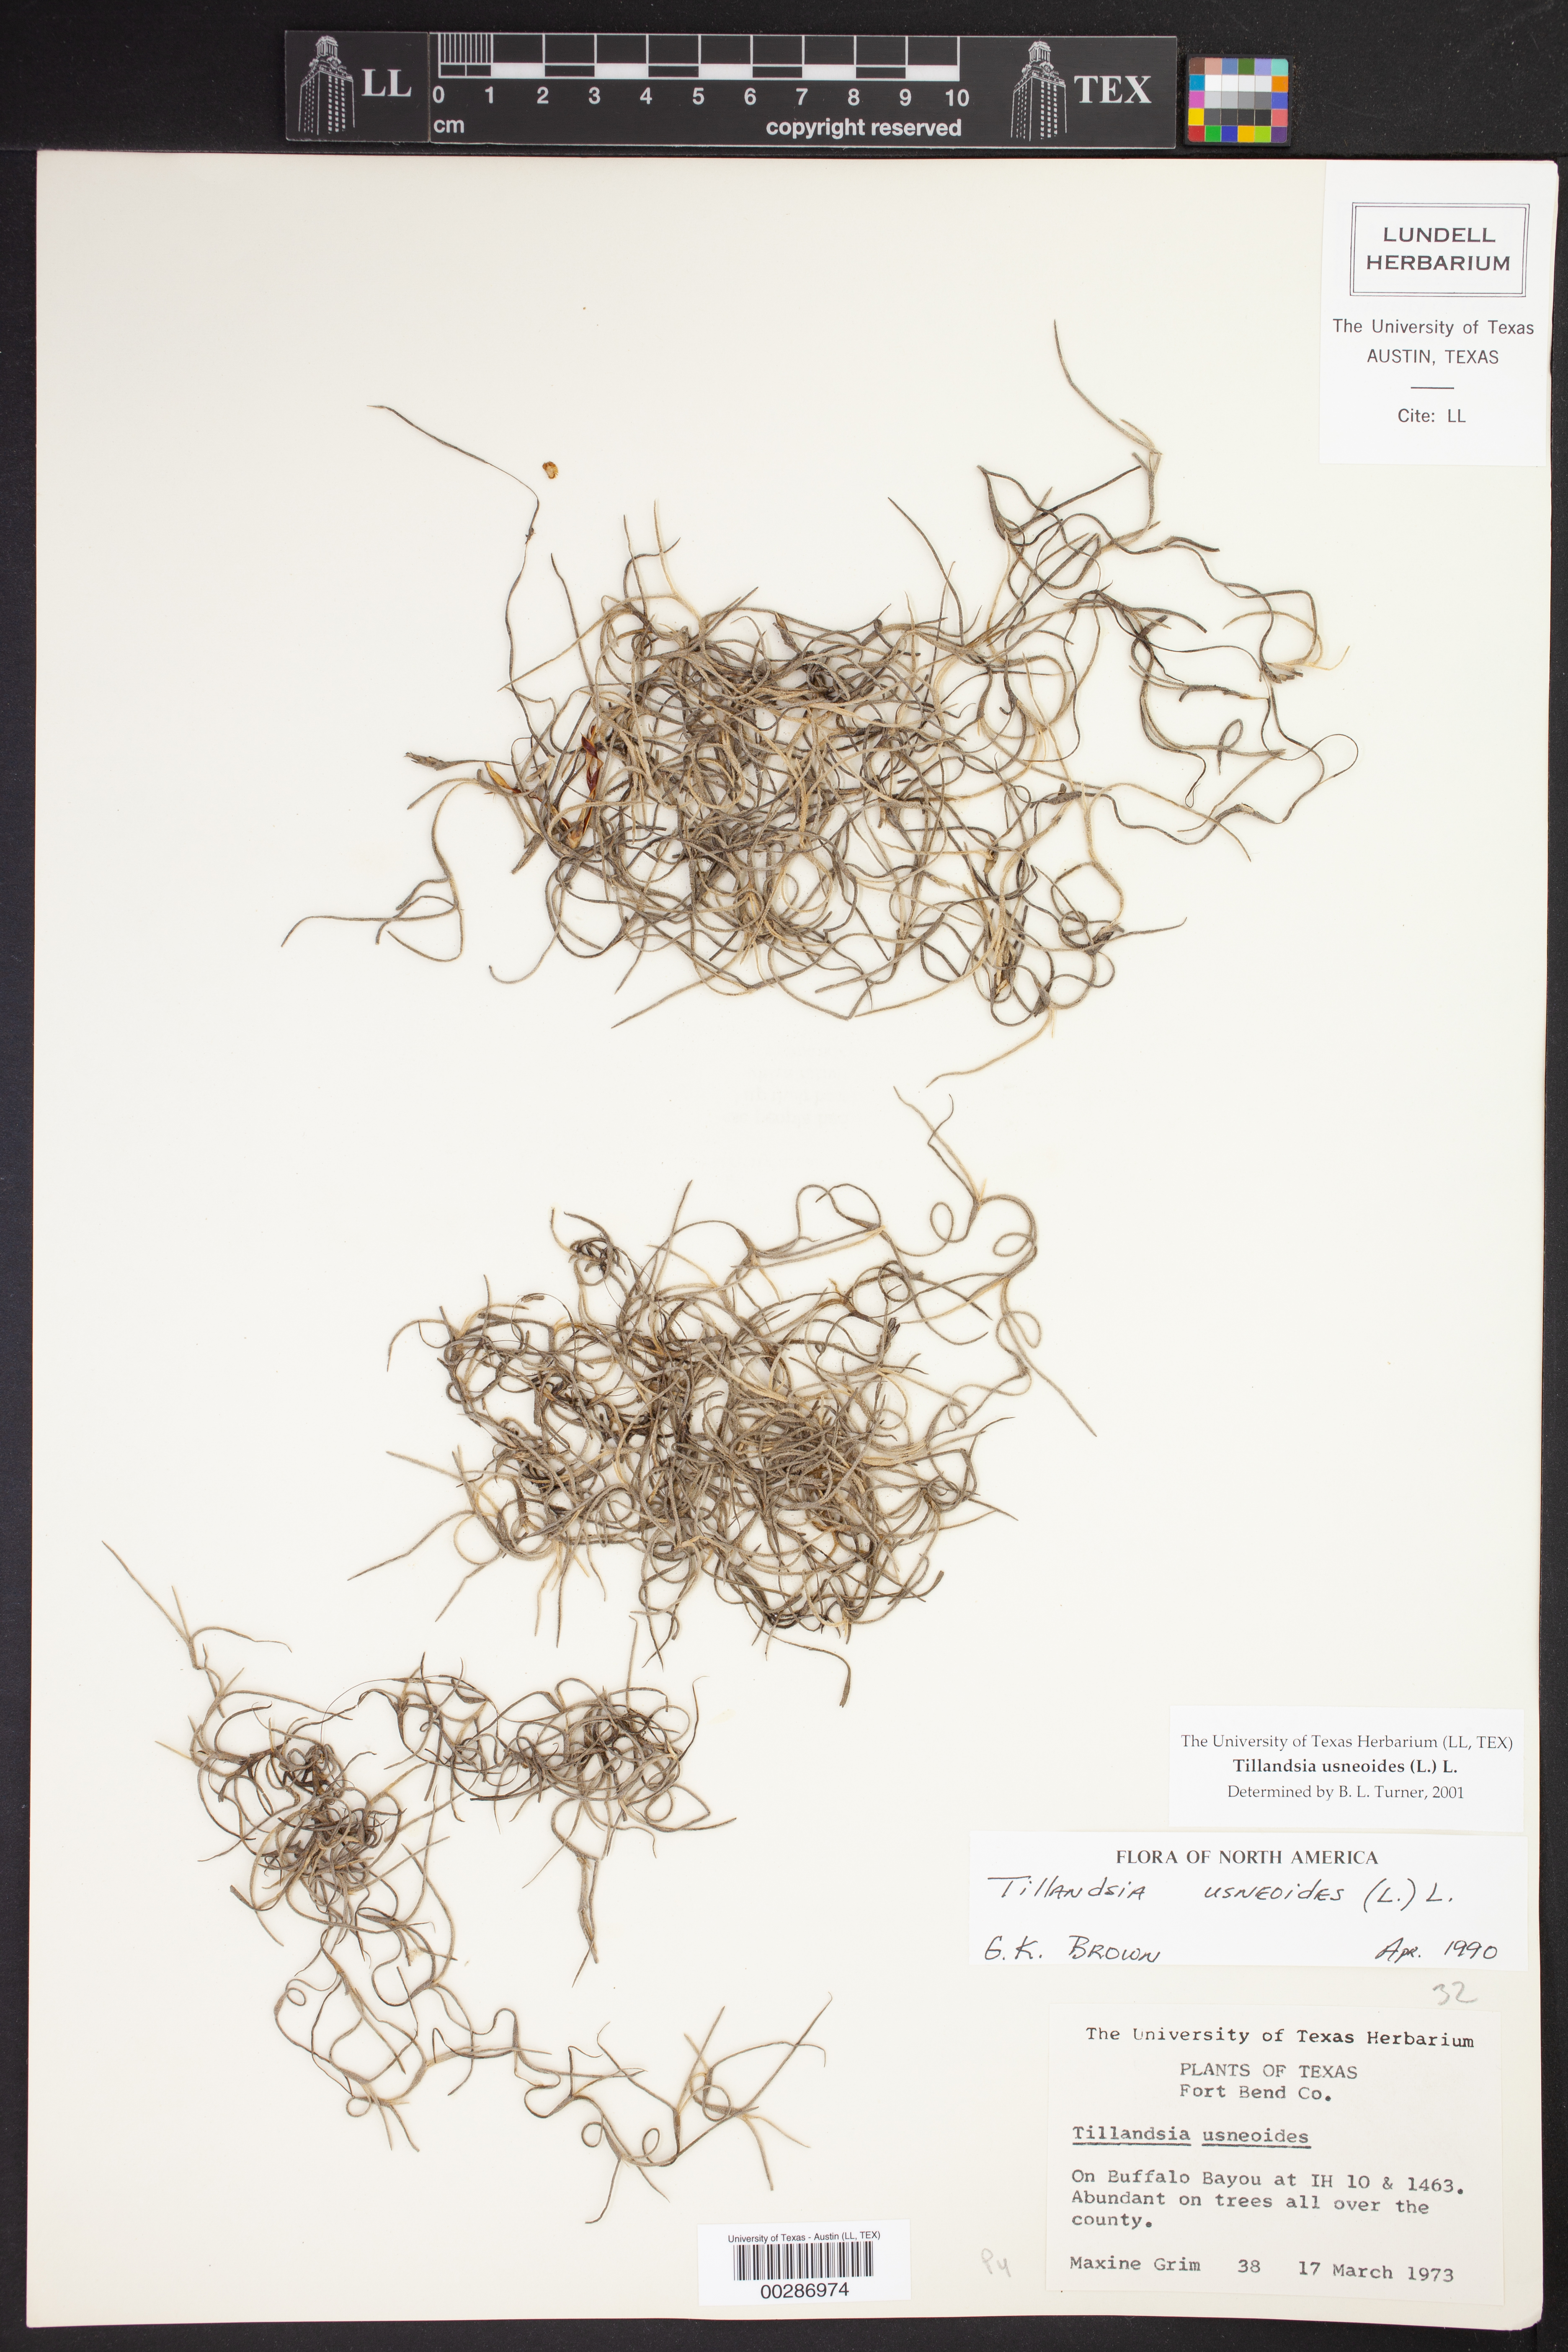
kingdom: Plantae
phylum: Tracheophyta
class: Liliopsida
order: Poales
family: Bromeliaceae
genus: Tillandsia
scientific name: Tillandsia usneoides
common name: Spanish moss
